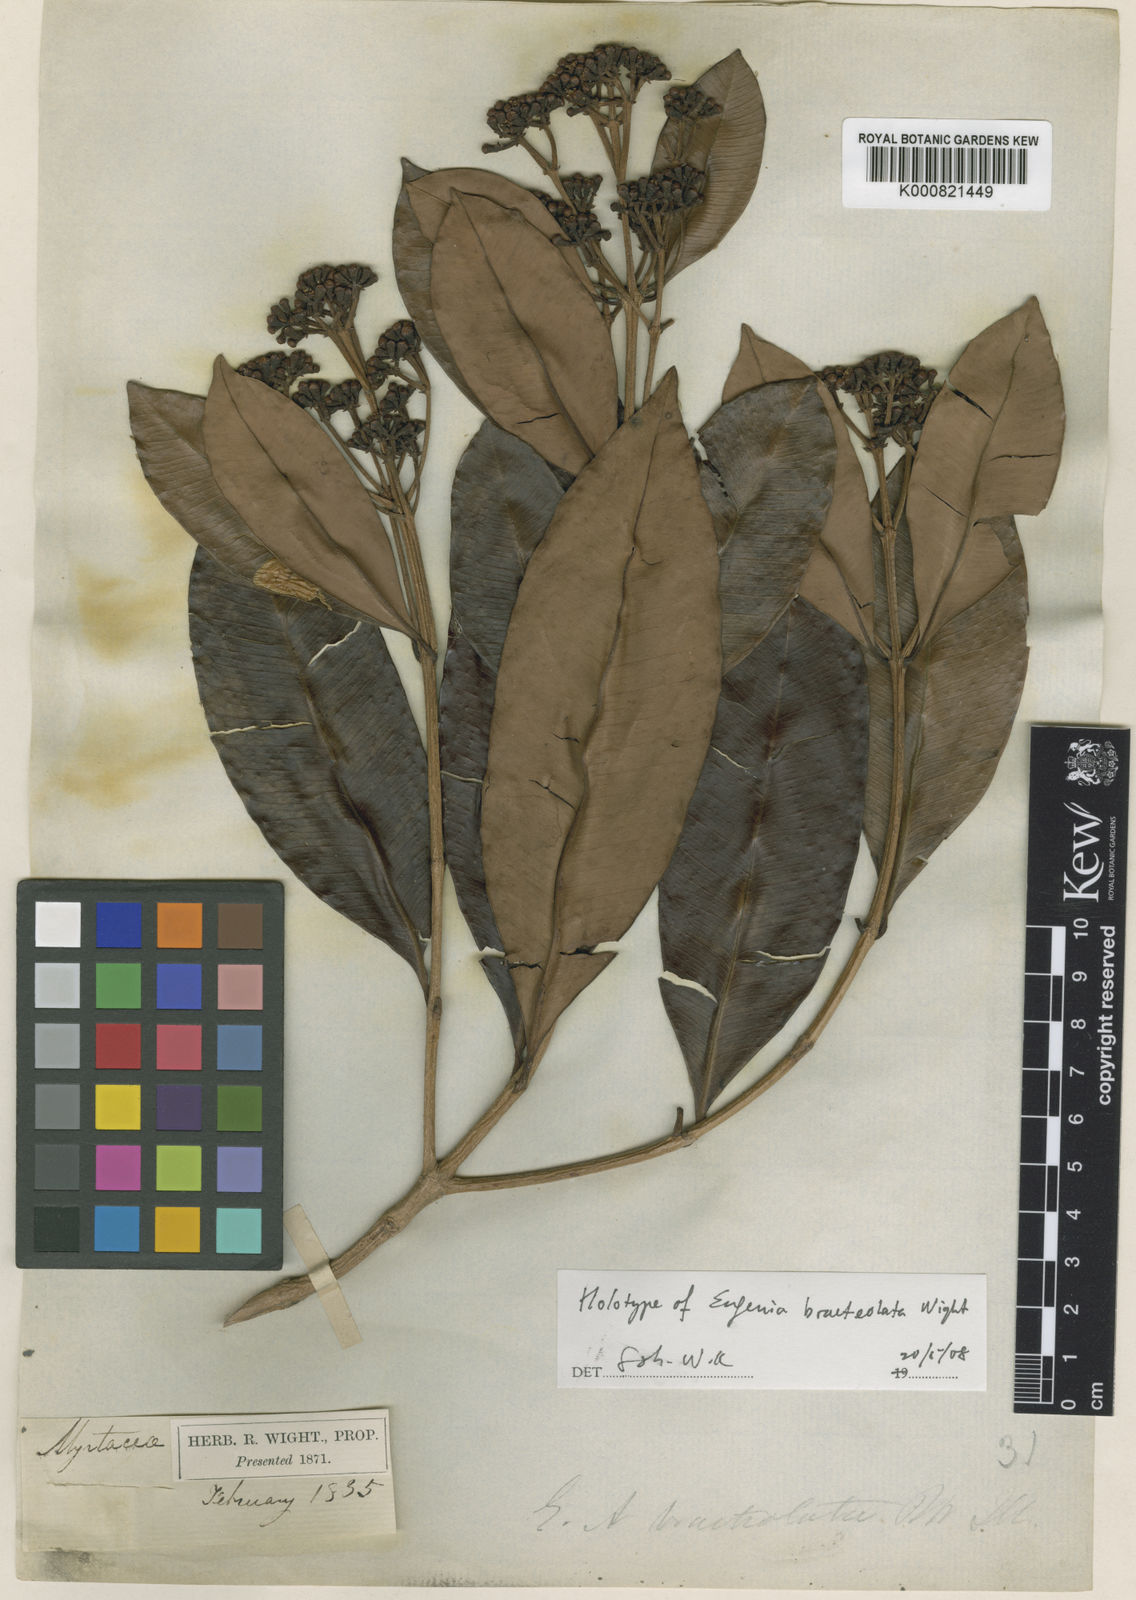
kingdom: Plantae
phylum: Tracheophyta
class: Magnoliopsida
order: Myrtales
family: Myrtaceae
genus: Syzygium
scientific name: Syzygium fastigiatum
